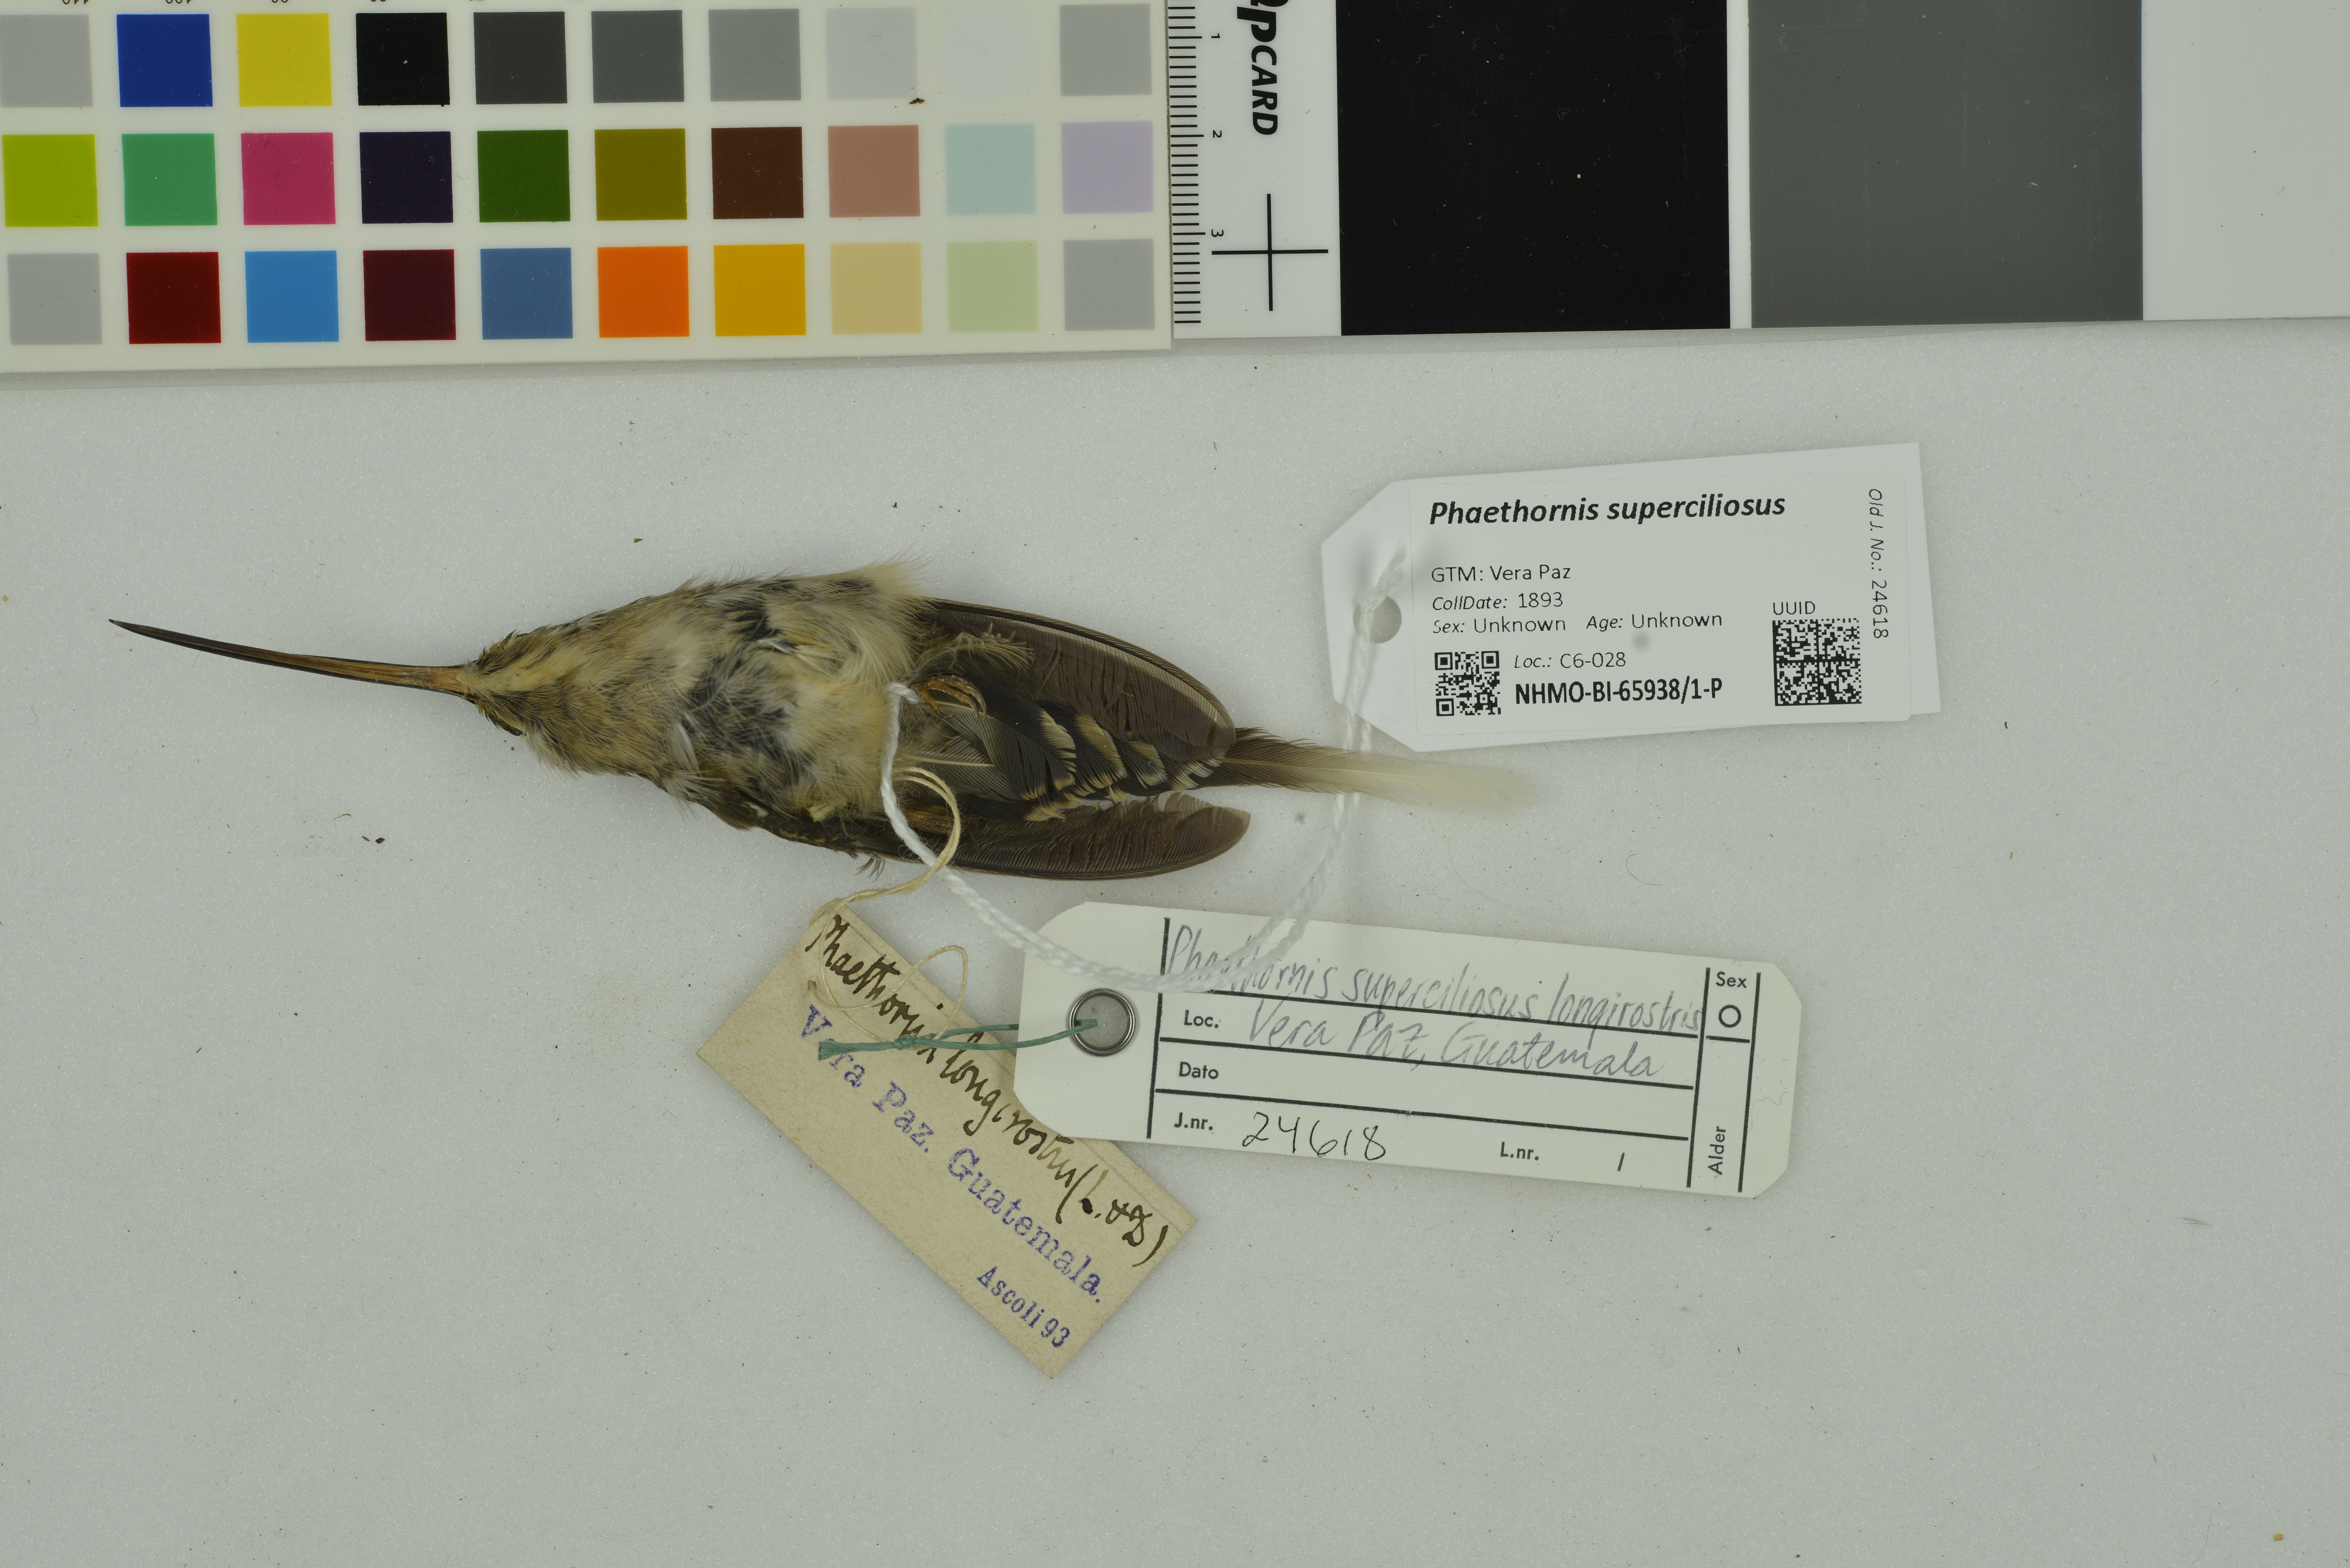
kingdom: Animalia
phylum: Chordata
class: Aves
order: Apodiformes
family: Trochilidae
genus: Phaethornis
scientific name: Phaethornis superciliosus
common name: Long-tailed hermit
